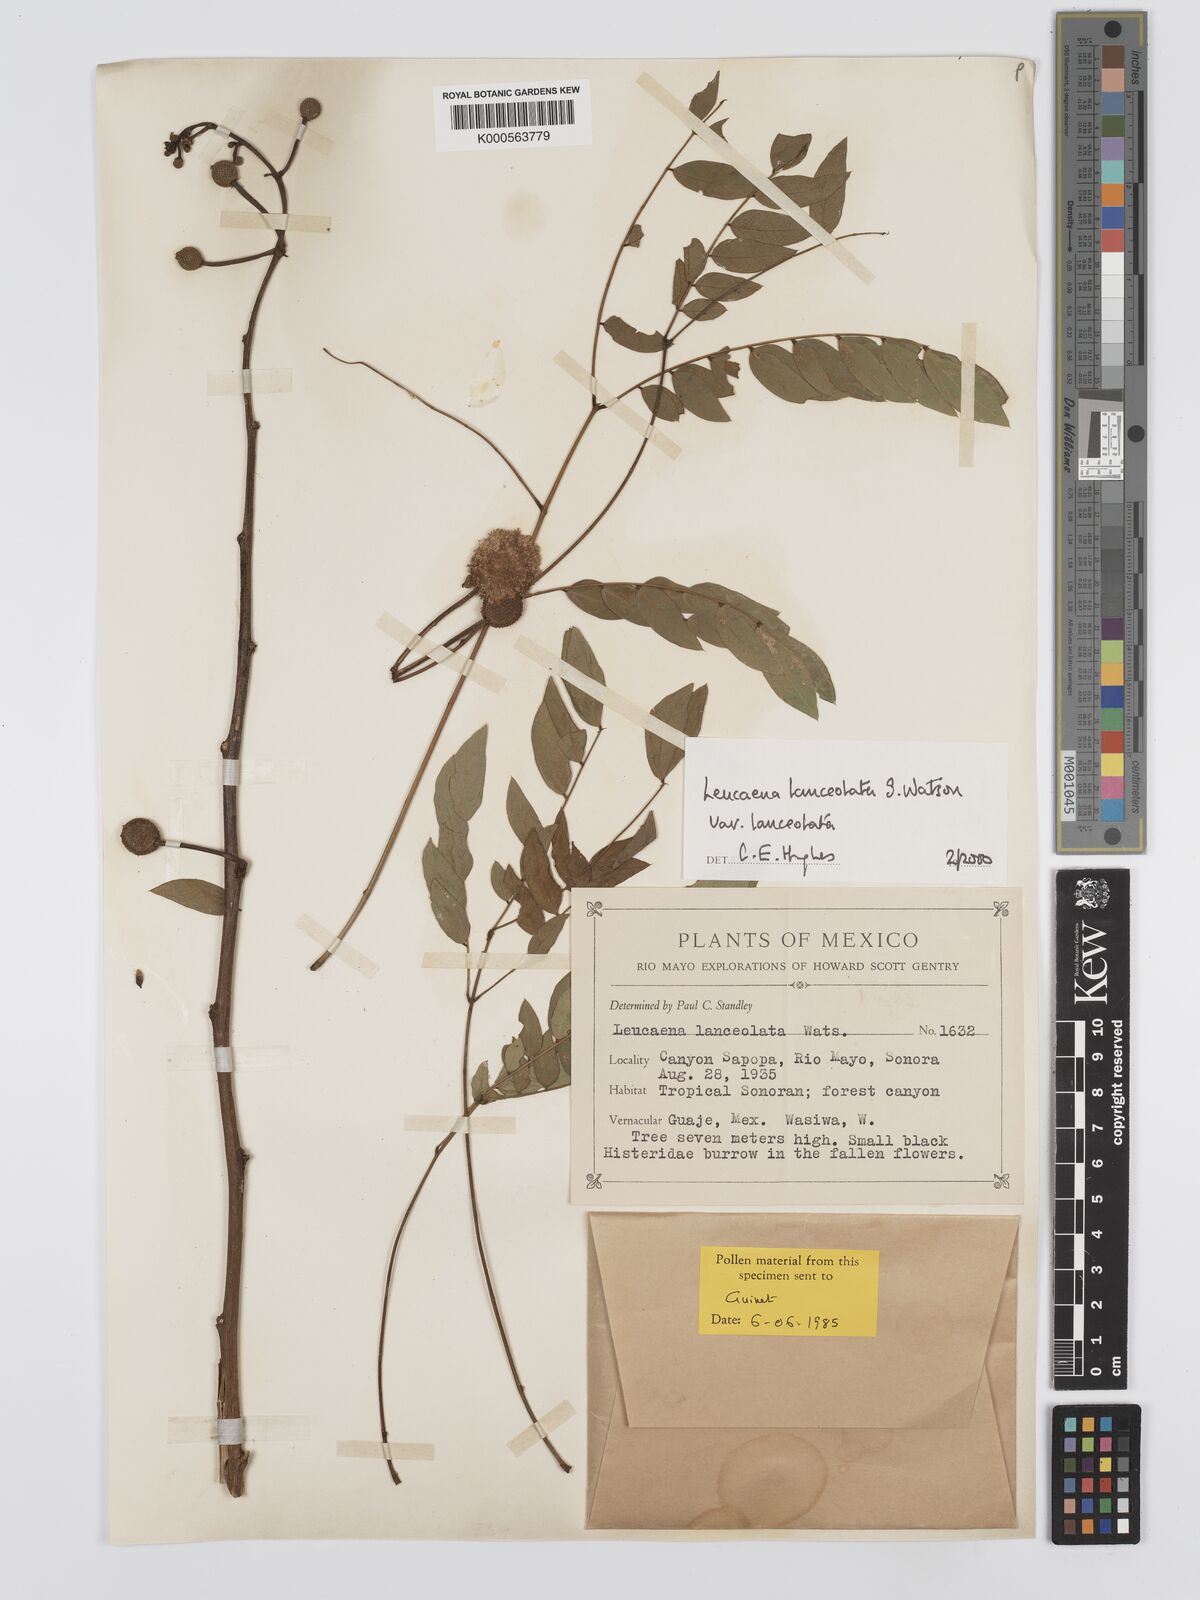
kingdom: Plantae
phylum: Tracheophyta
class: Magnoliopsida
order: Fabales
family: Fabaceae
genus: Leucaena
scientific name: Leucaena lanceolata
